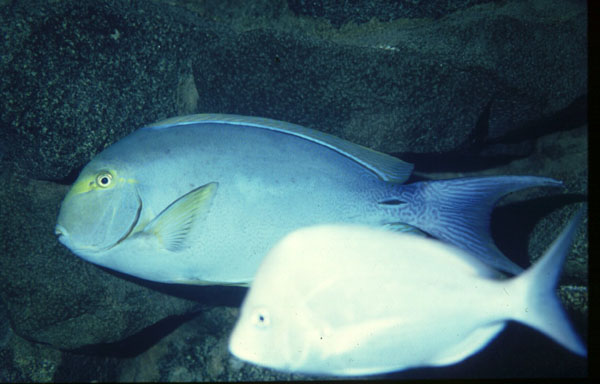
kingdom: Animalia
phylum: Chordata
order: Perciformes
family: Acanthuridae
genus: Acanthurus
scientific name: Acanthurus dussumieri
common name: Dussumier's surgeonfish
